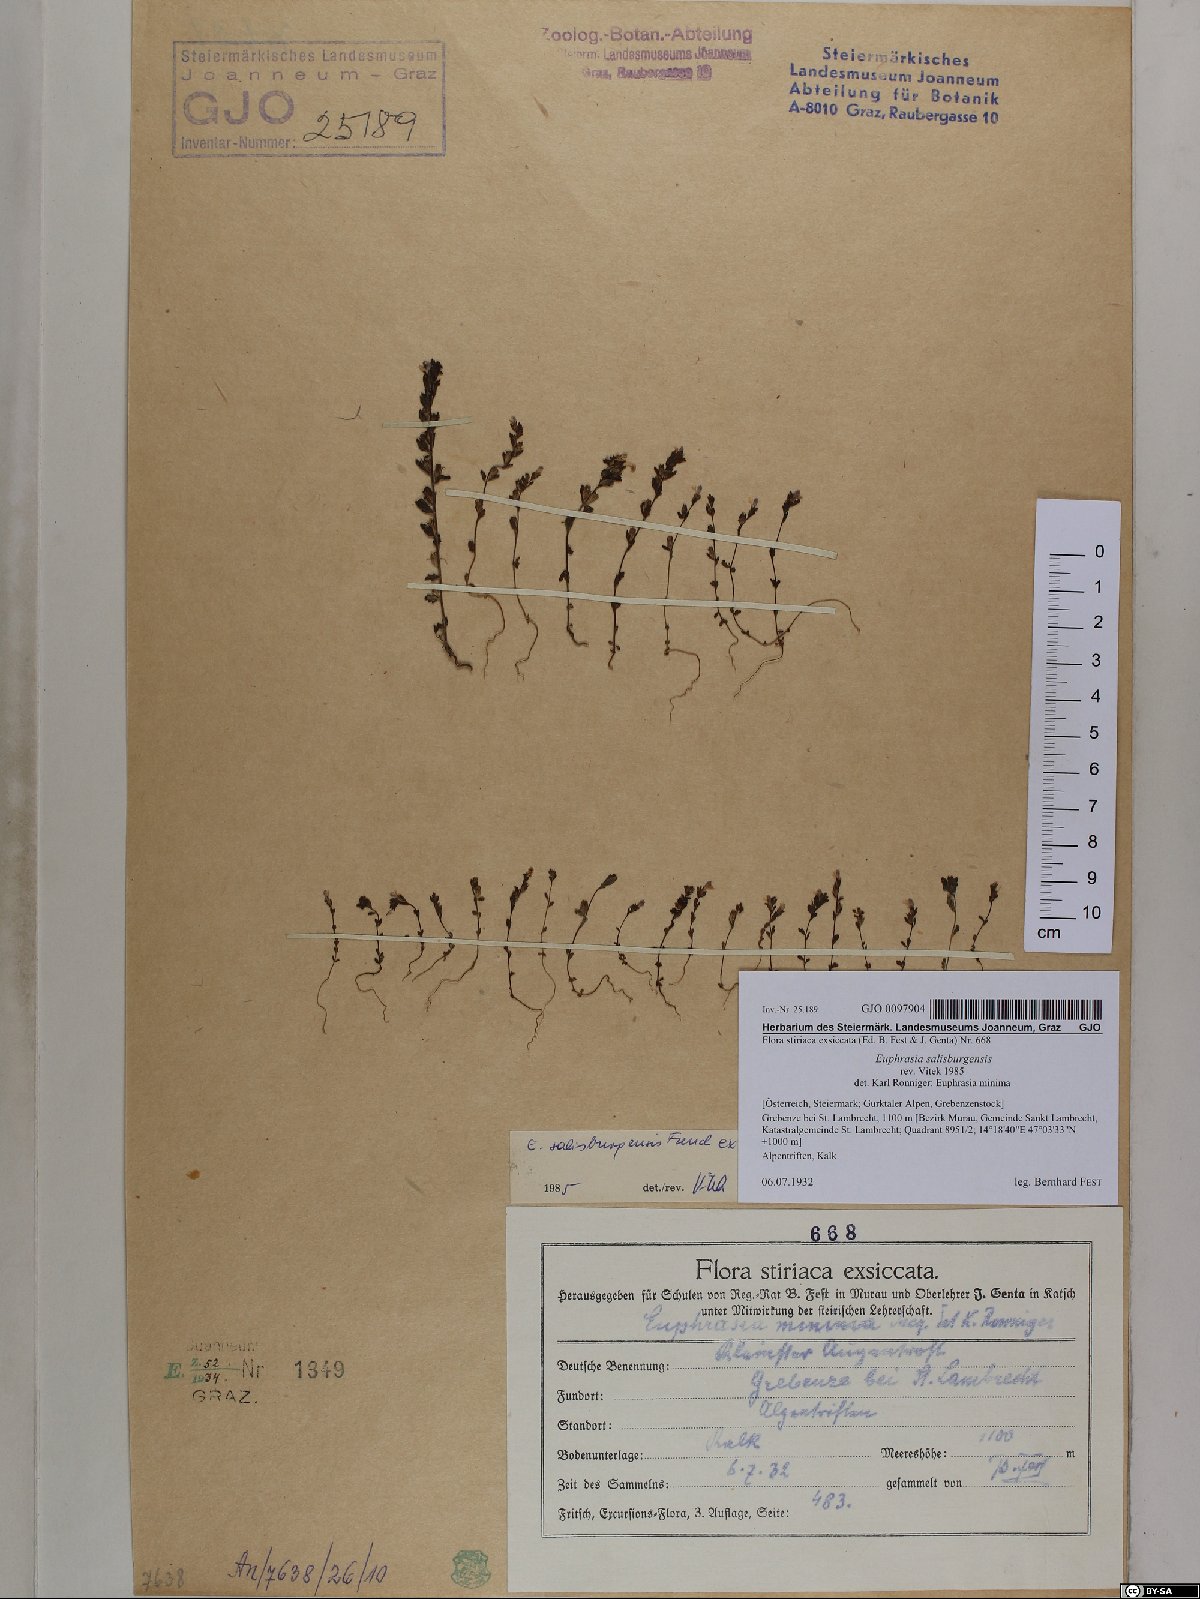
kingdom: Plantae
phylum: Tracheophyta
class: Magnoliopsida
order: Lamiales
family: Orobanchaceae
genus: Euphrasia
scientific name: Euphrasia salisburgensis
